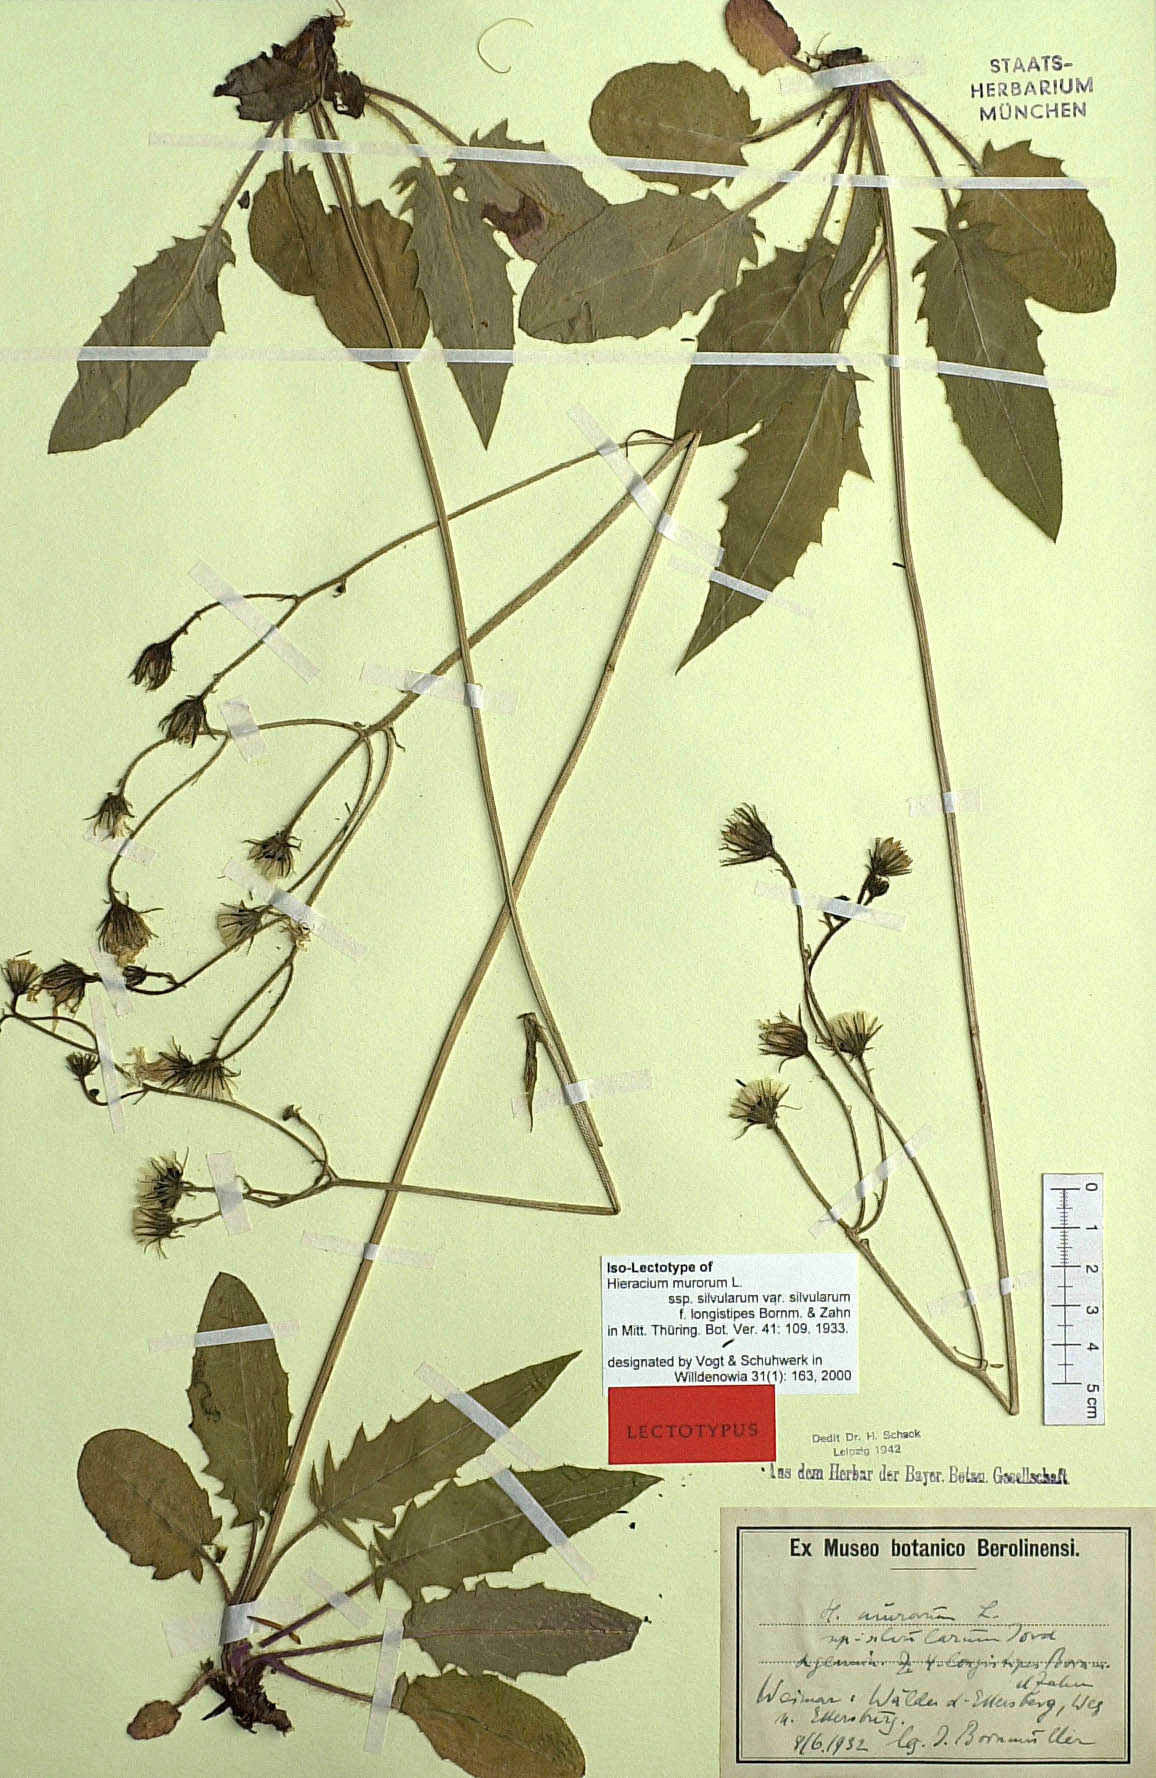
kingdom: Plantae
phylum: Tracheophyta
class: Magnoliopsida
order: Asterales
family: Asteraceae
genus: Hieracium
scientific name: Hieracium murorum
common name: Wall hawkweed
